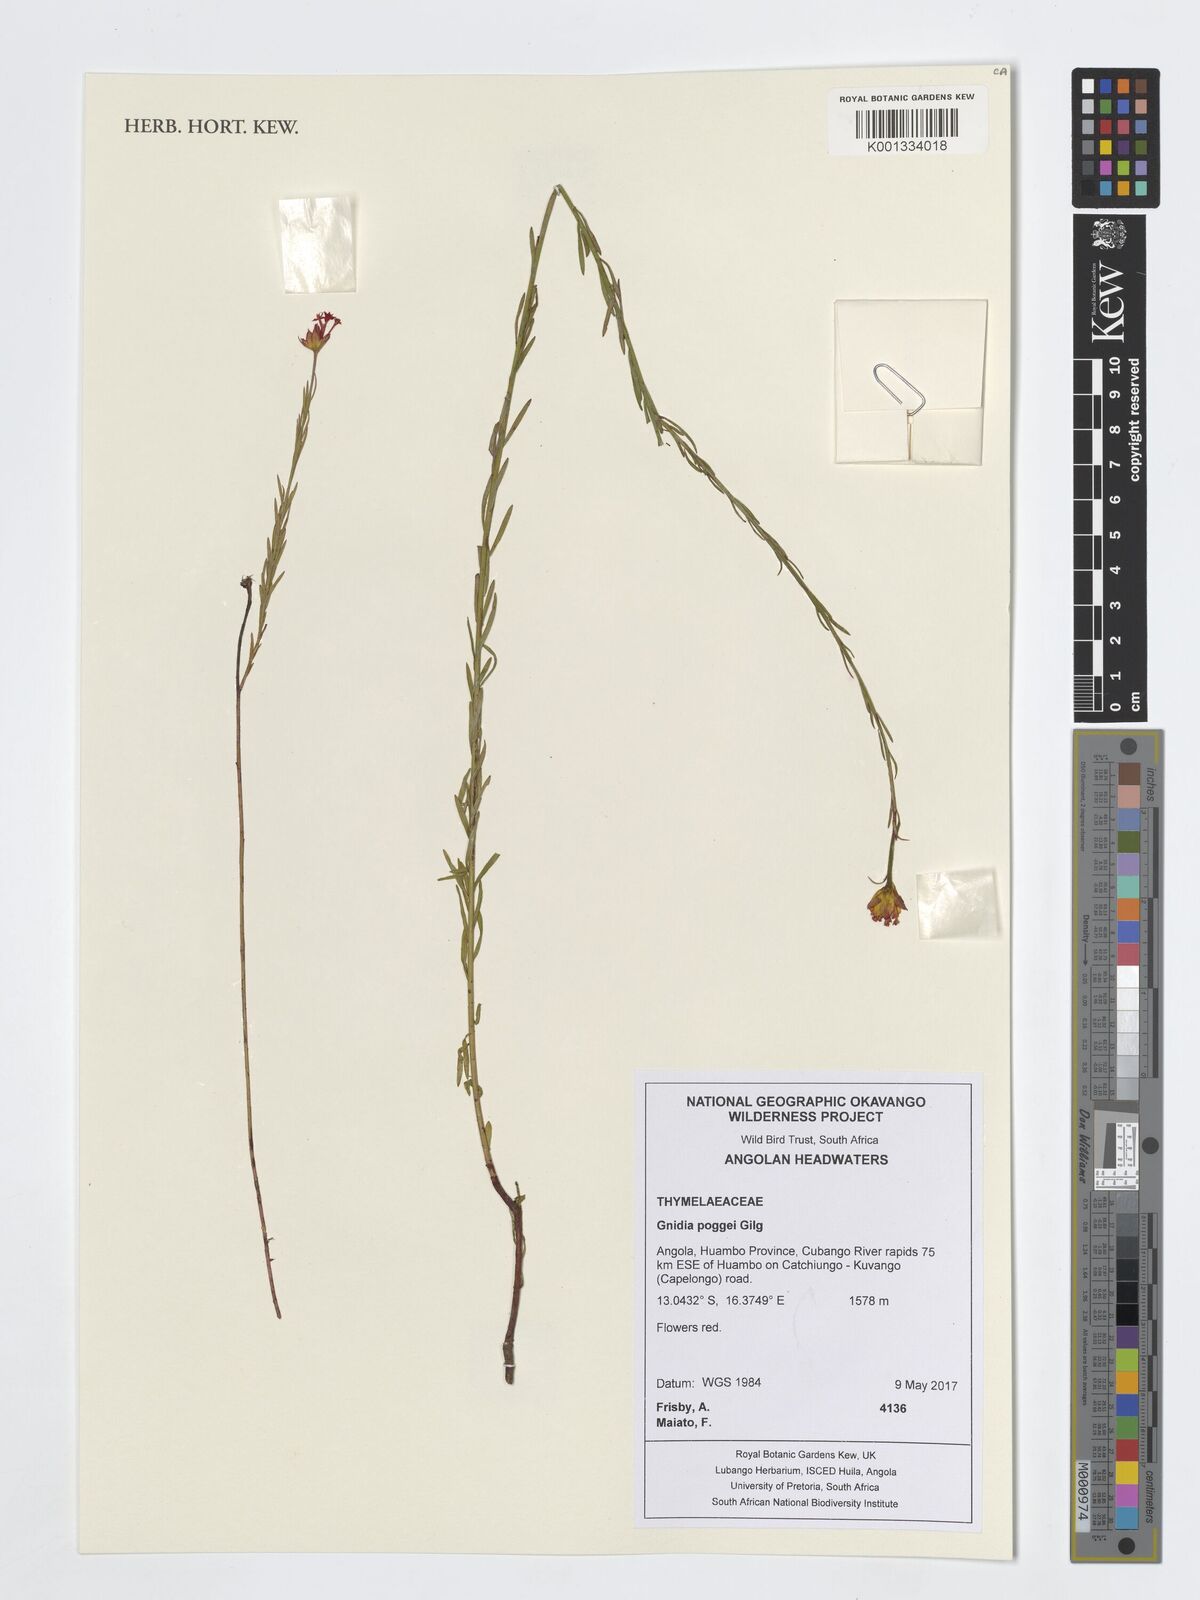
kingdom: Plantae
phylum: Tracheophyta
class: Magnoliopsida
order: Malvales
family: Thymelaeaceae
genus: Gnidia
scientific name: Gnidia poggei
